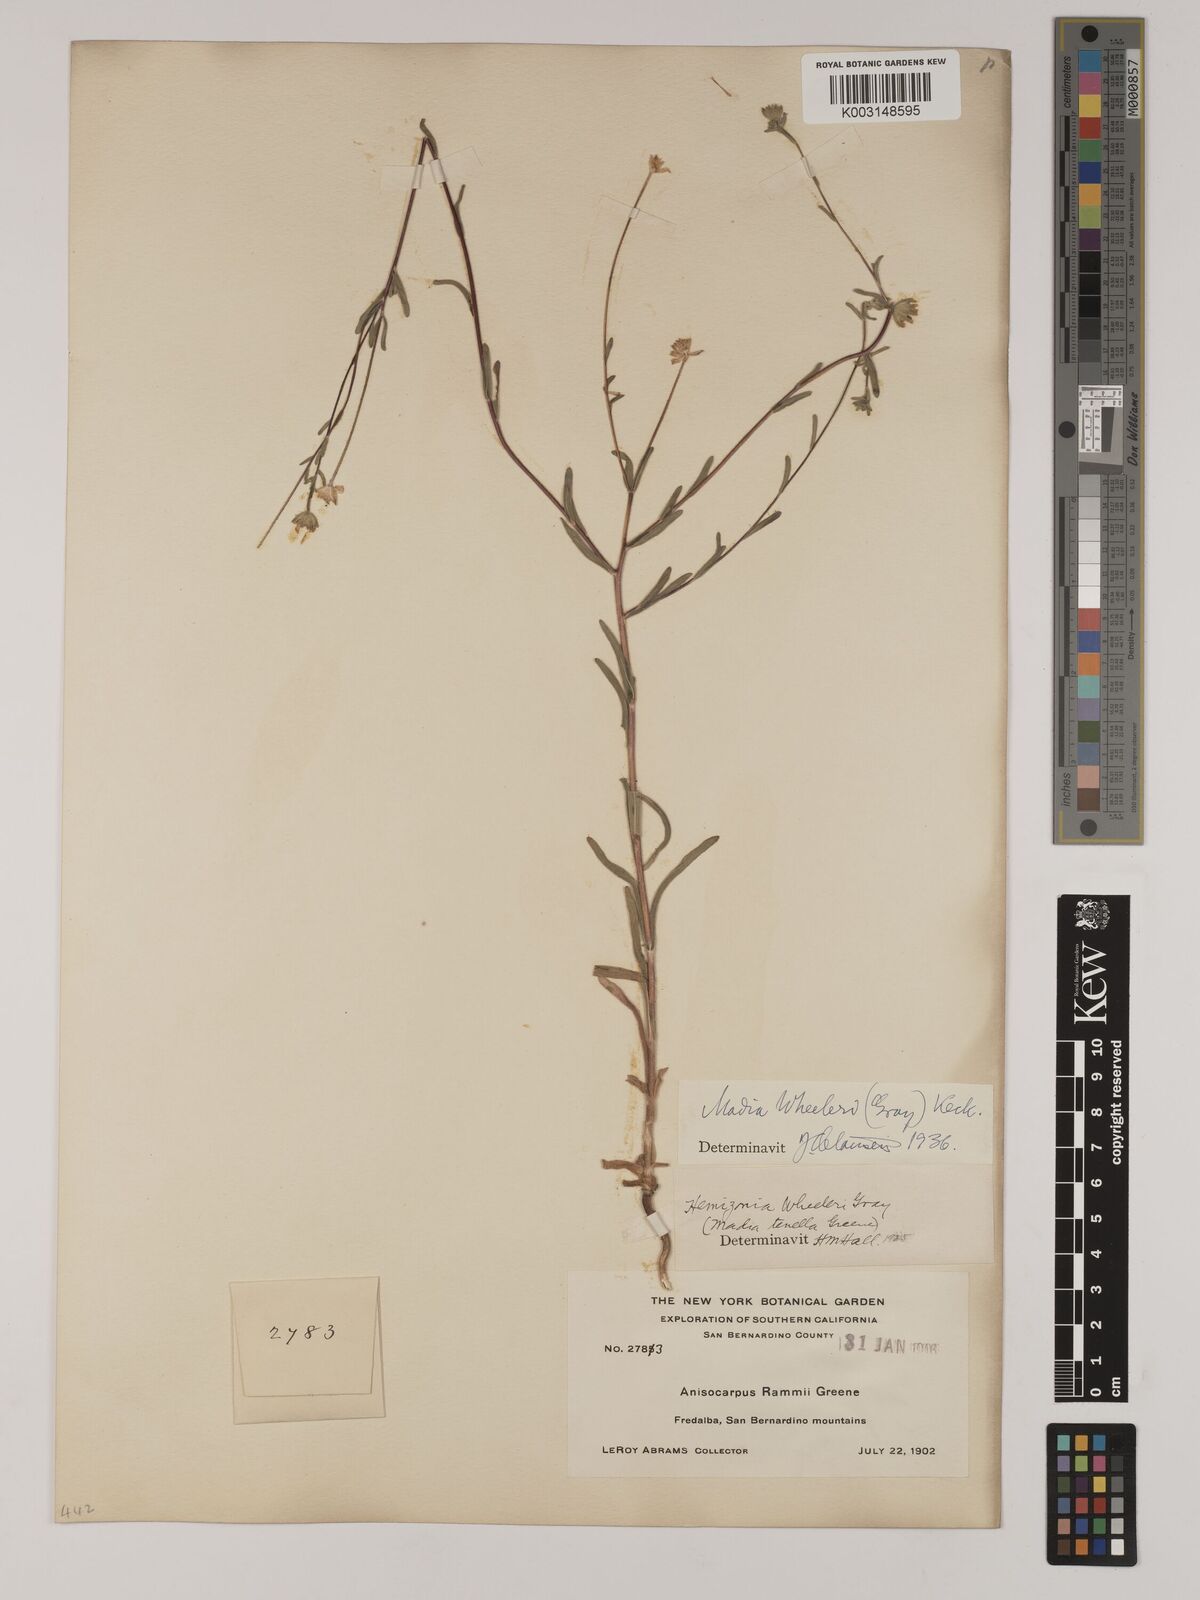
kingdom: Plantae
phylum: Tracheophyta
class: Magnoliopsida
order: Asterales
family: Asteraceae
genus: Madia
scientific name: Madia elegans
